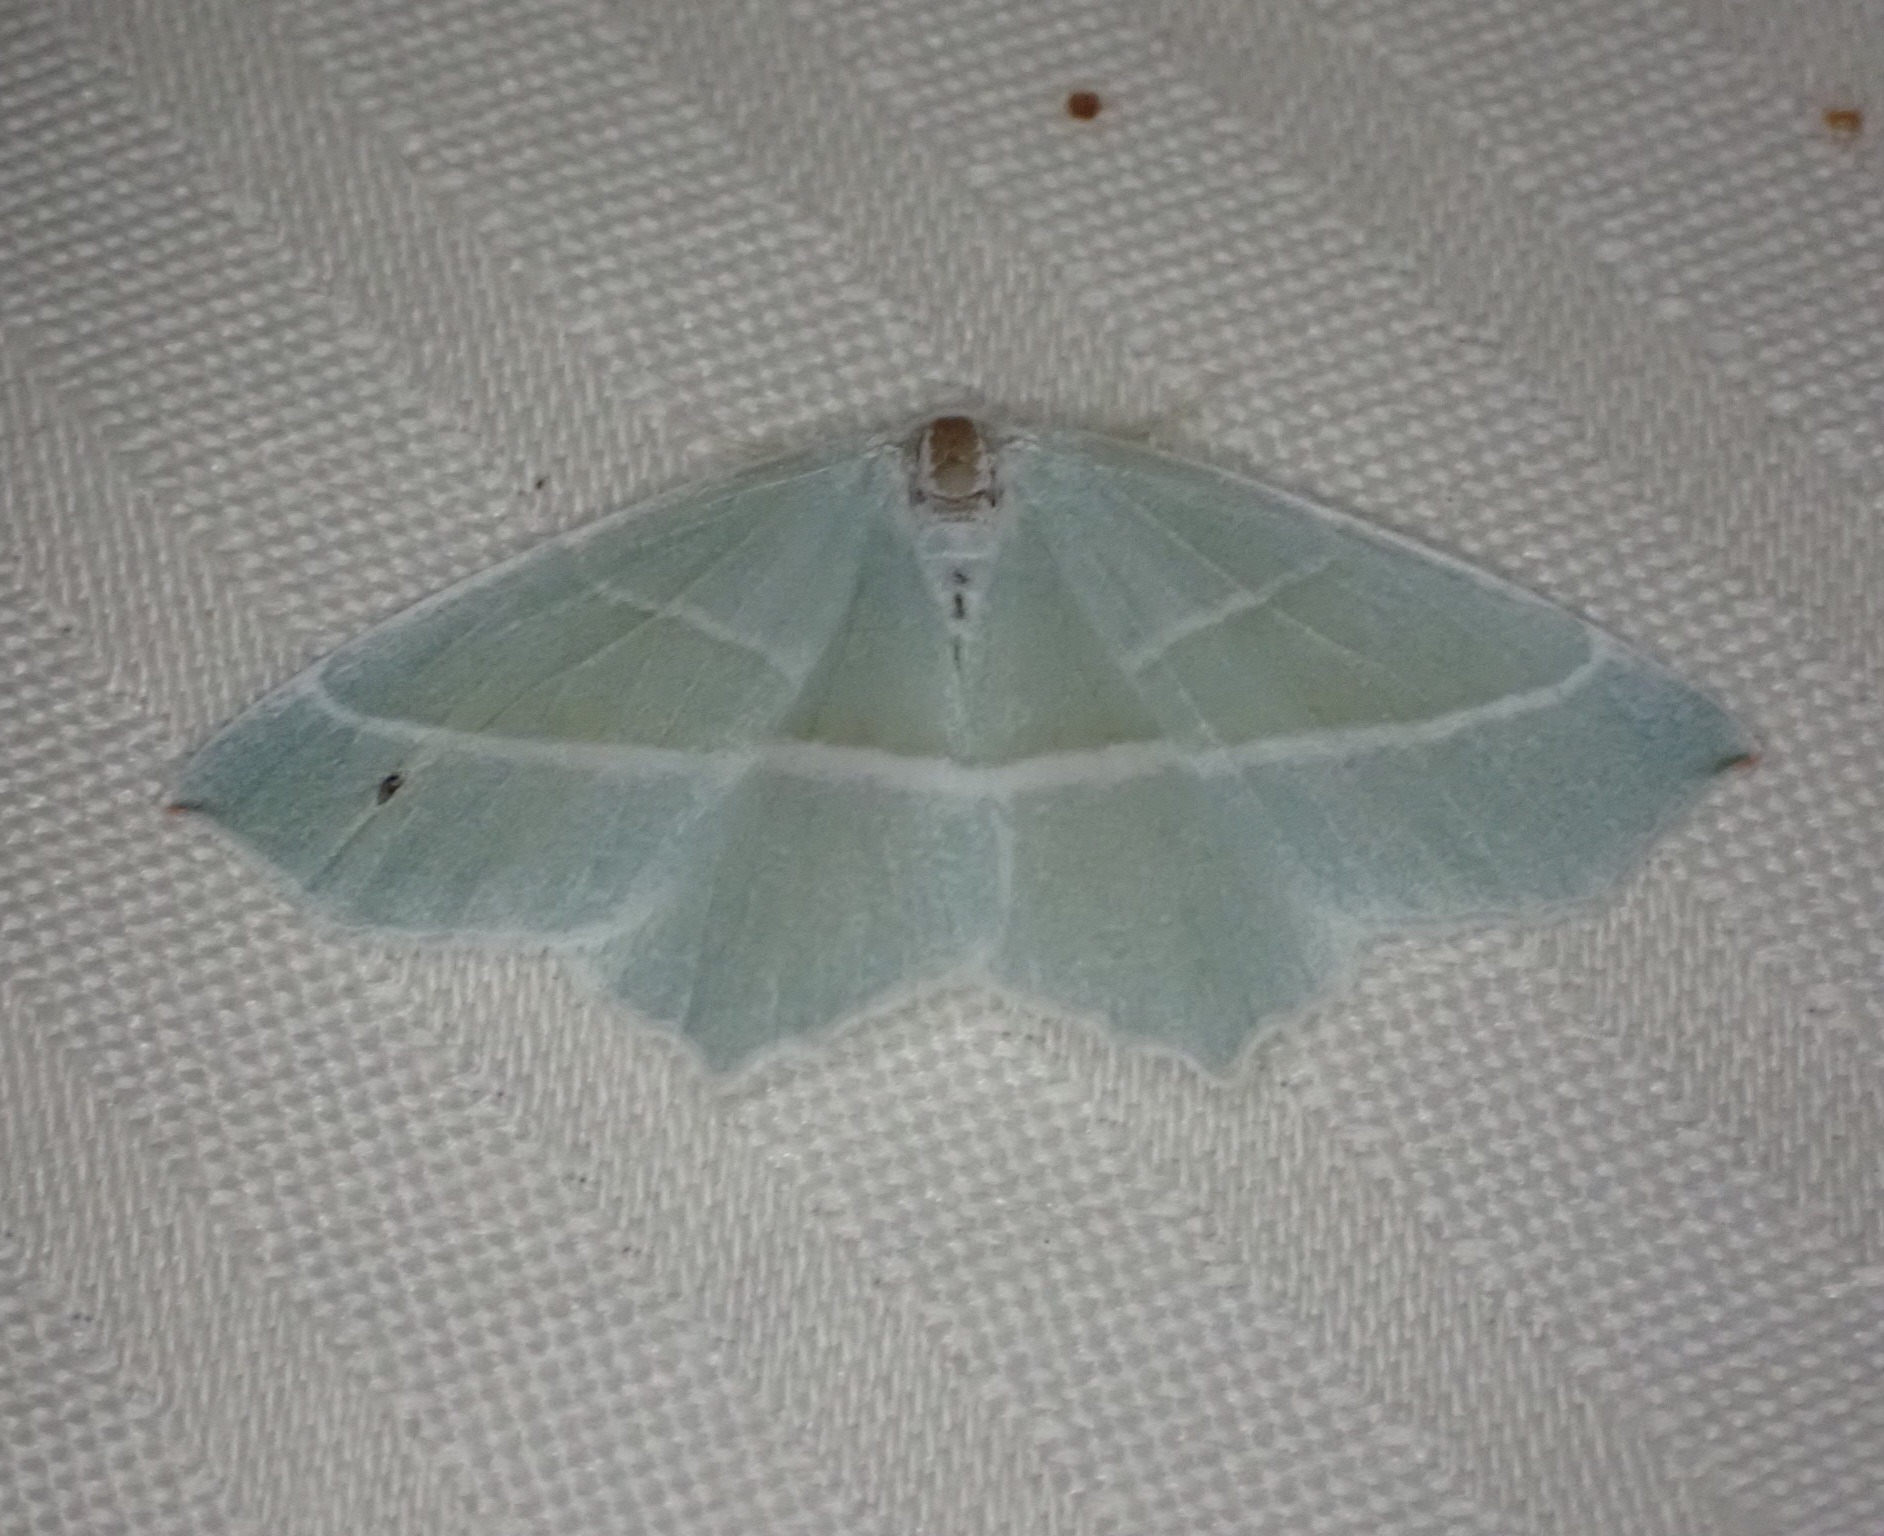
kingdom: Animalia
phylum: Arthropoda
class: Insecta
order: Lepidoptera
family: Geometridae
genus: Campaea
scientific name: Campaea margaritaria
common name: Perlemåler
